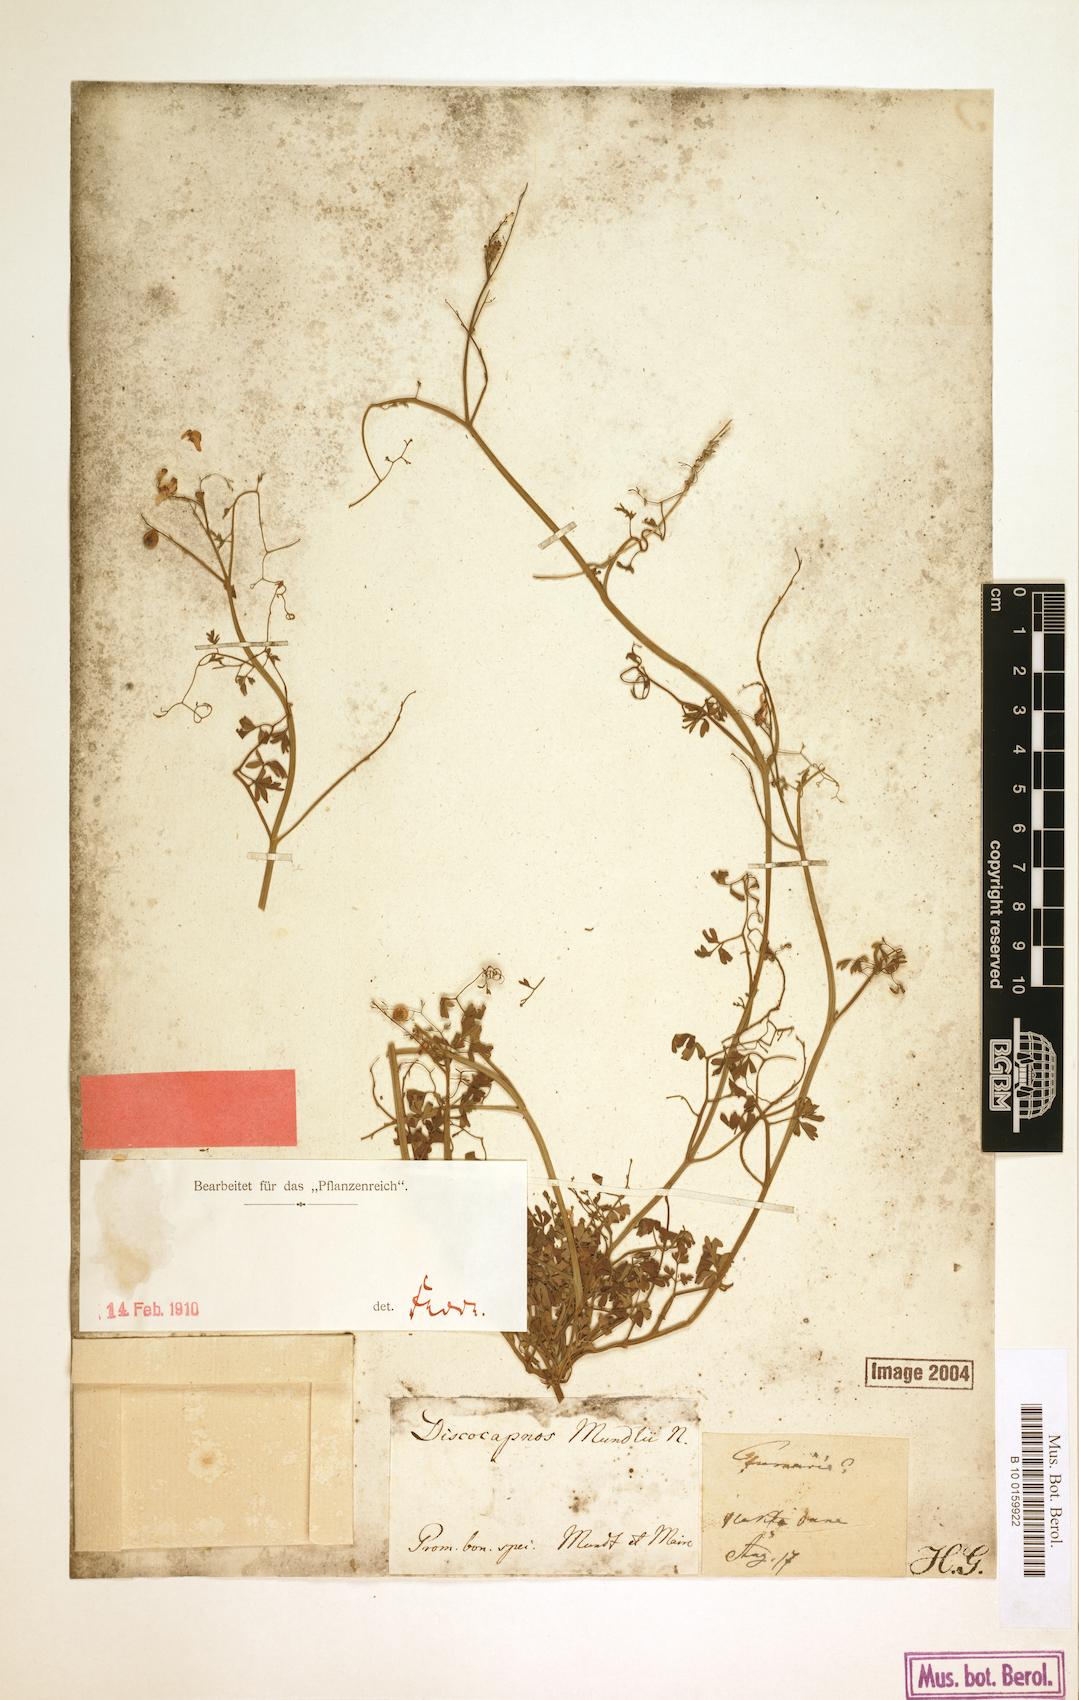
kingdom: Plantae
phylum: Tracheophyta
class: Magnoliopsida
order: Ranunculales
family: Papaveraceae
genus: Discocapnos
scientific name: Discocapnos mundti
